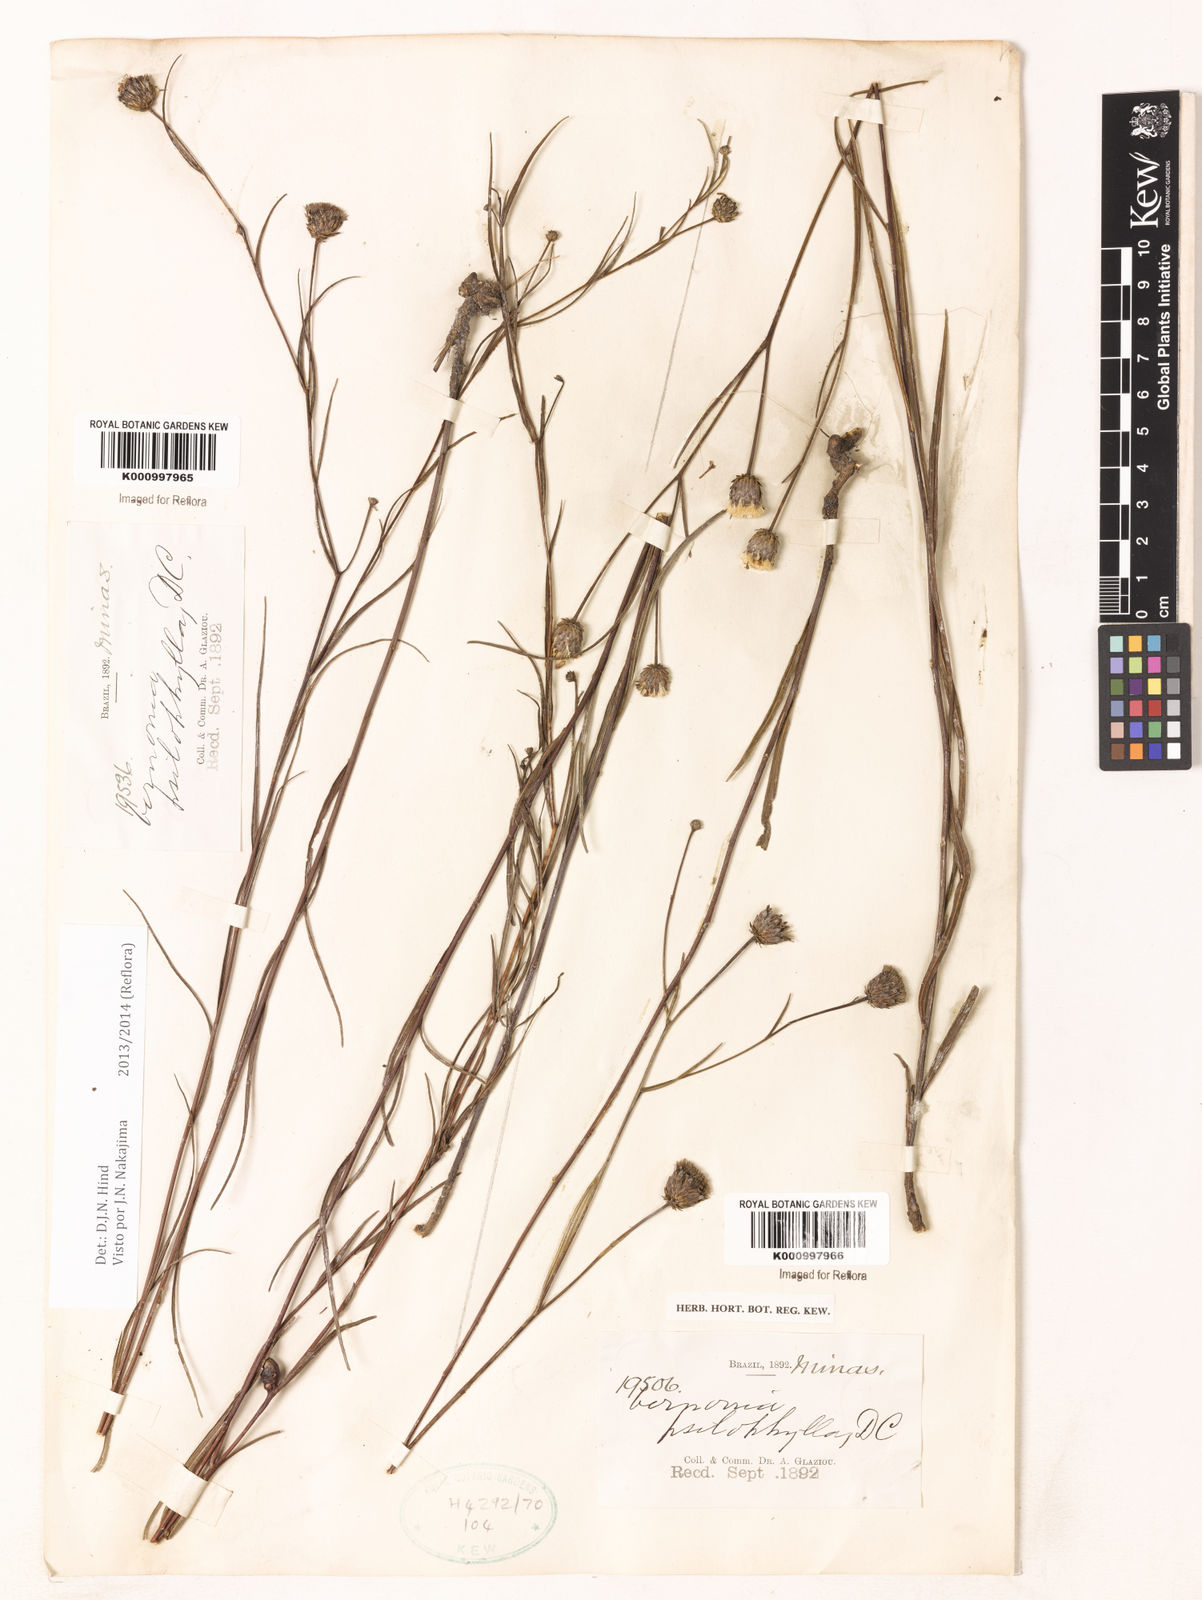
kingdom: Plantae
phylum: Tracheophyta
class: Magnoliopsida
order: Asterales
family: Asteraceae
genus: Lessingianthus
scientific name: Lessingianthus psilophyllus
